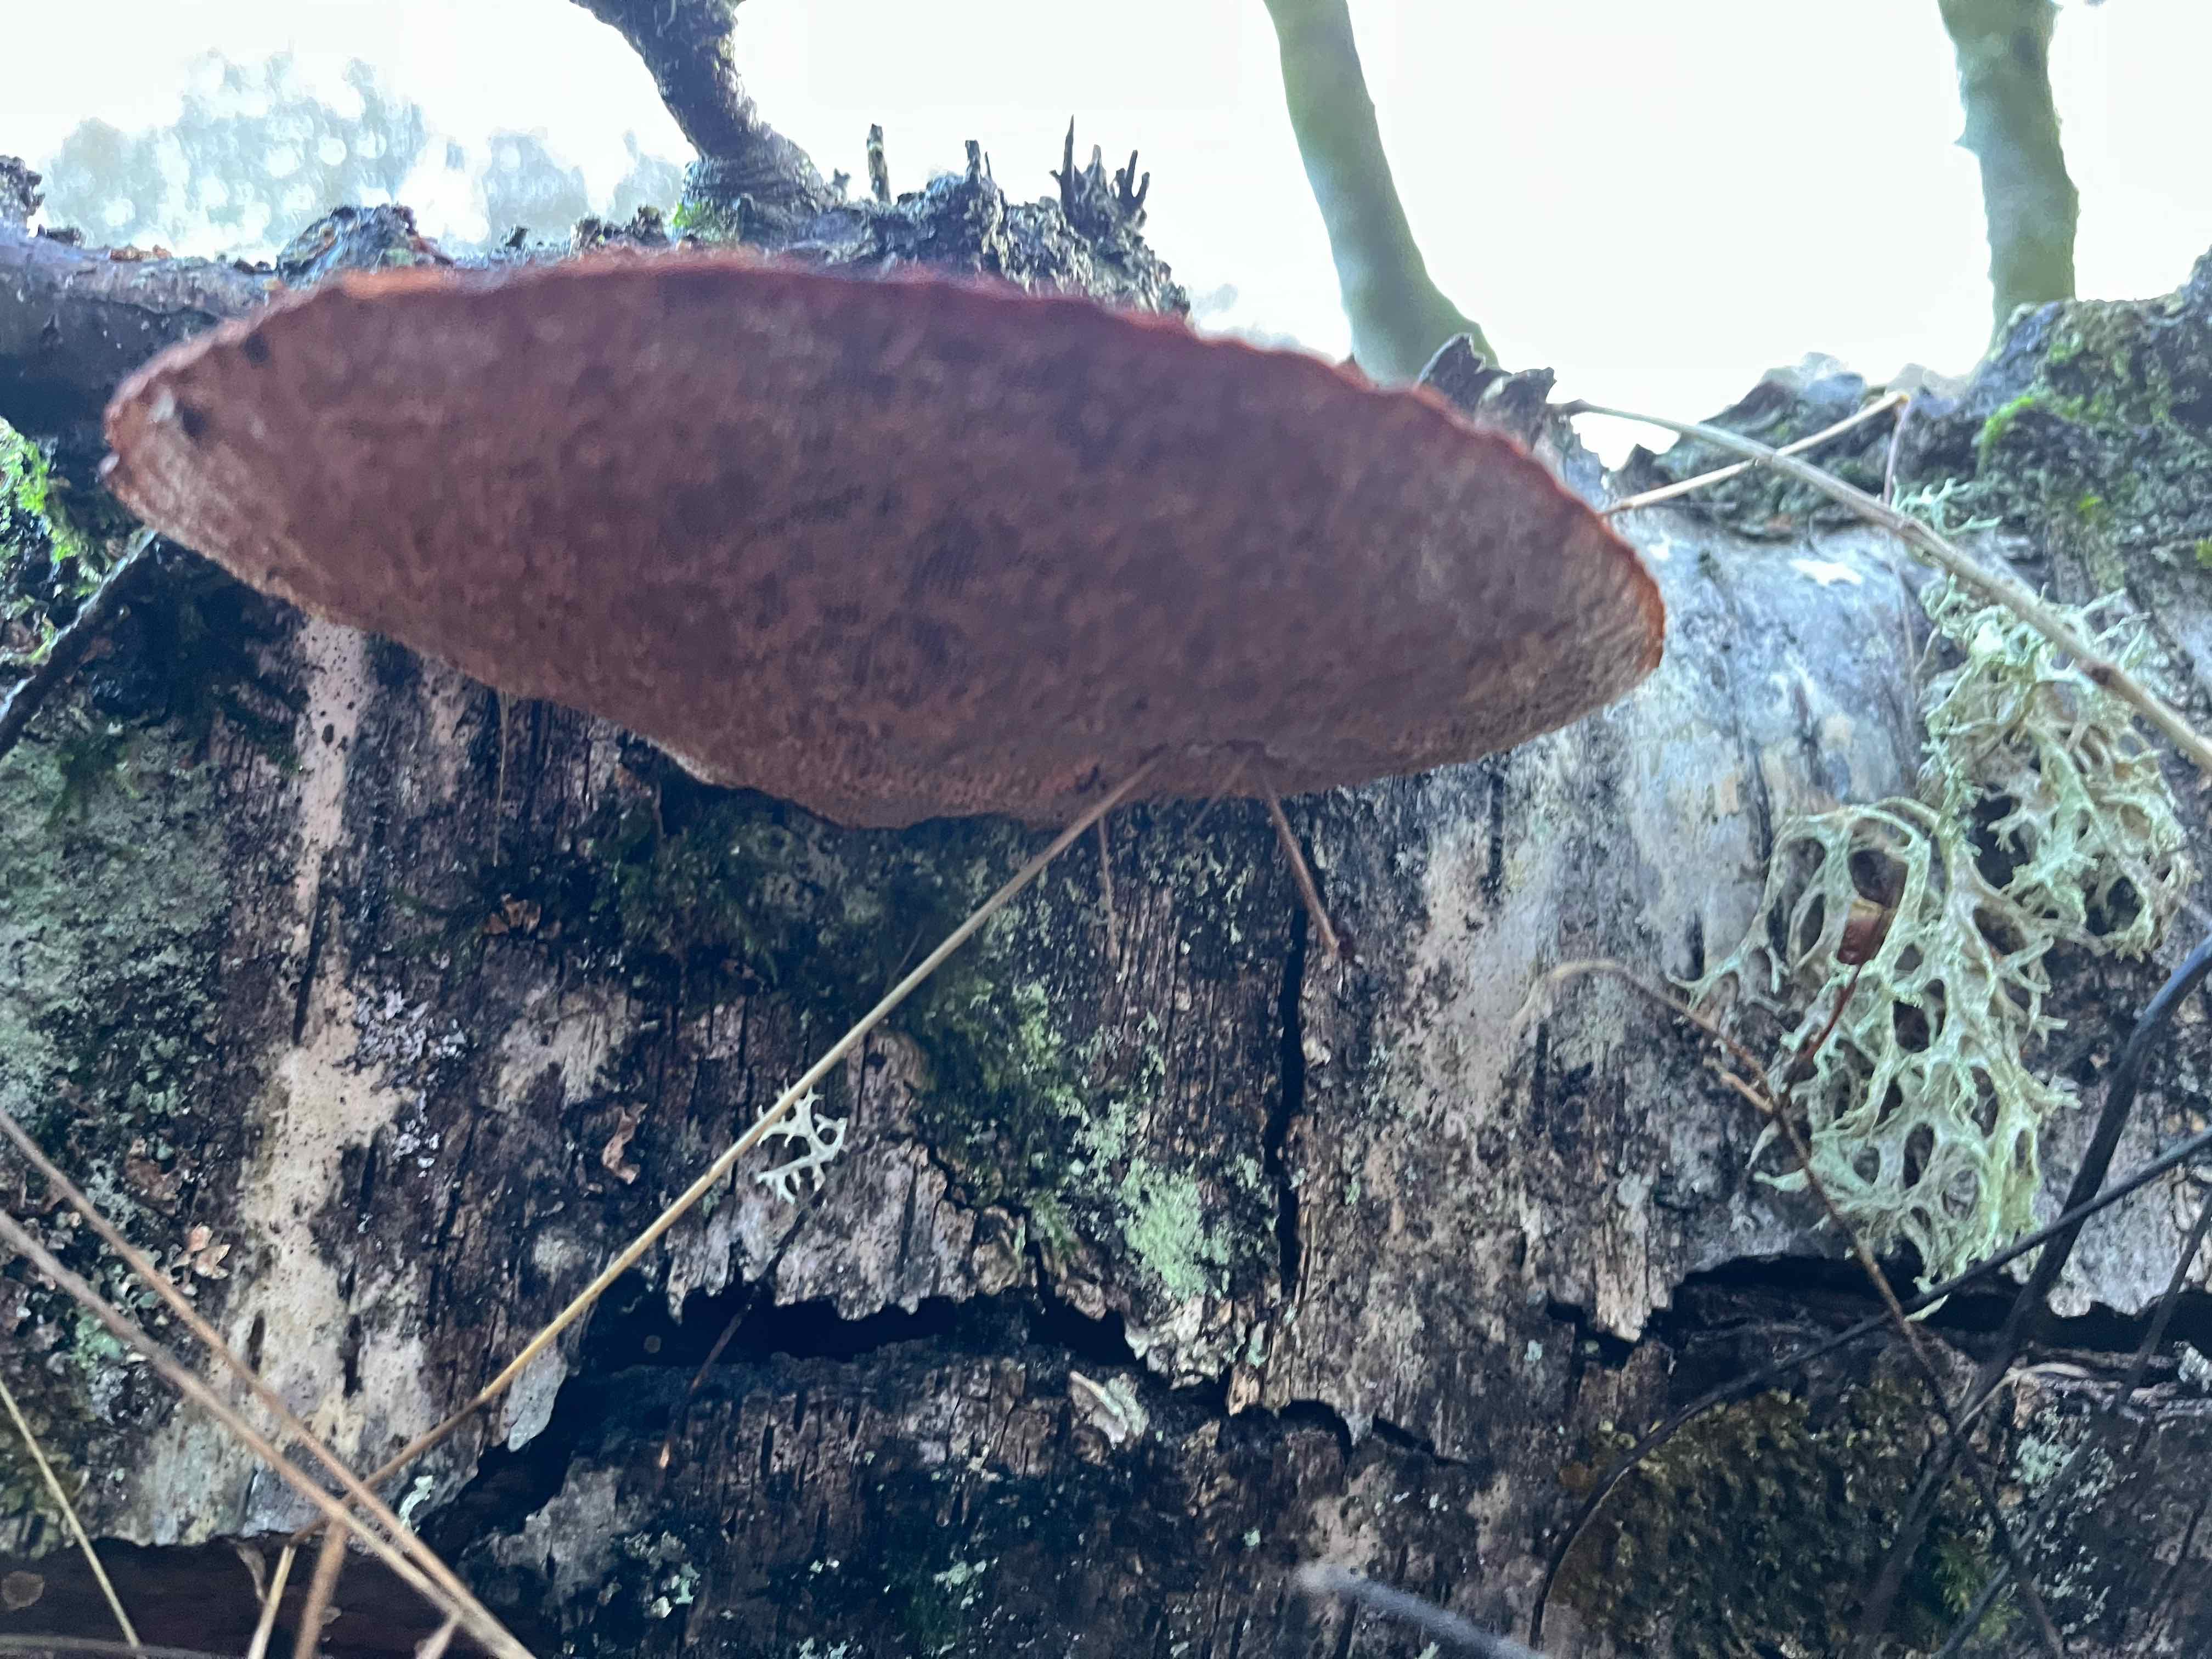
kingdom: Fungi
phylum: Basidiomycota
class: Agaricomycetes
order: Polyporales
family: Polyporaceae
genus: Daedaleopsis
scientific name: Daedaleopsis confragosa
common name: rødmende læderporesvamp
